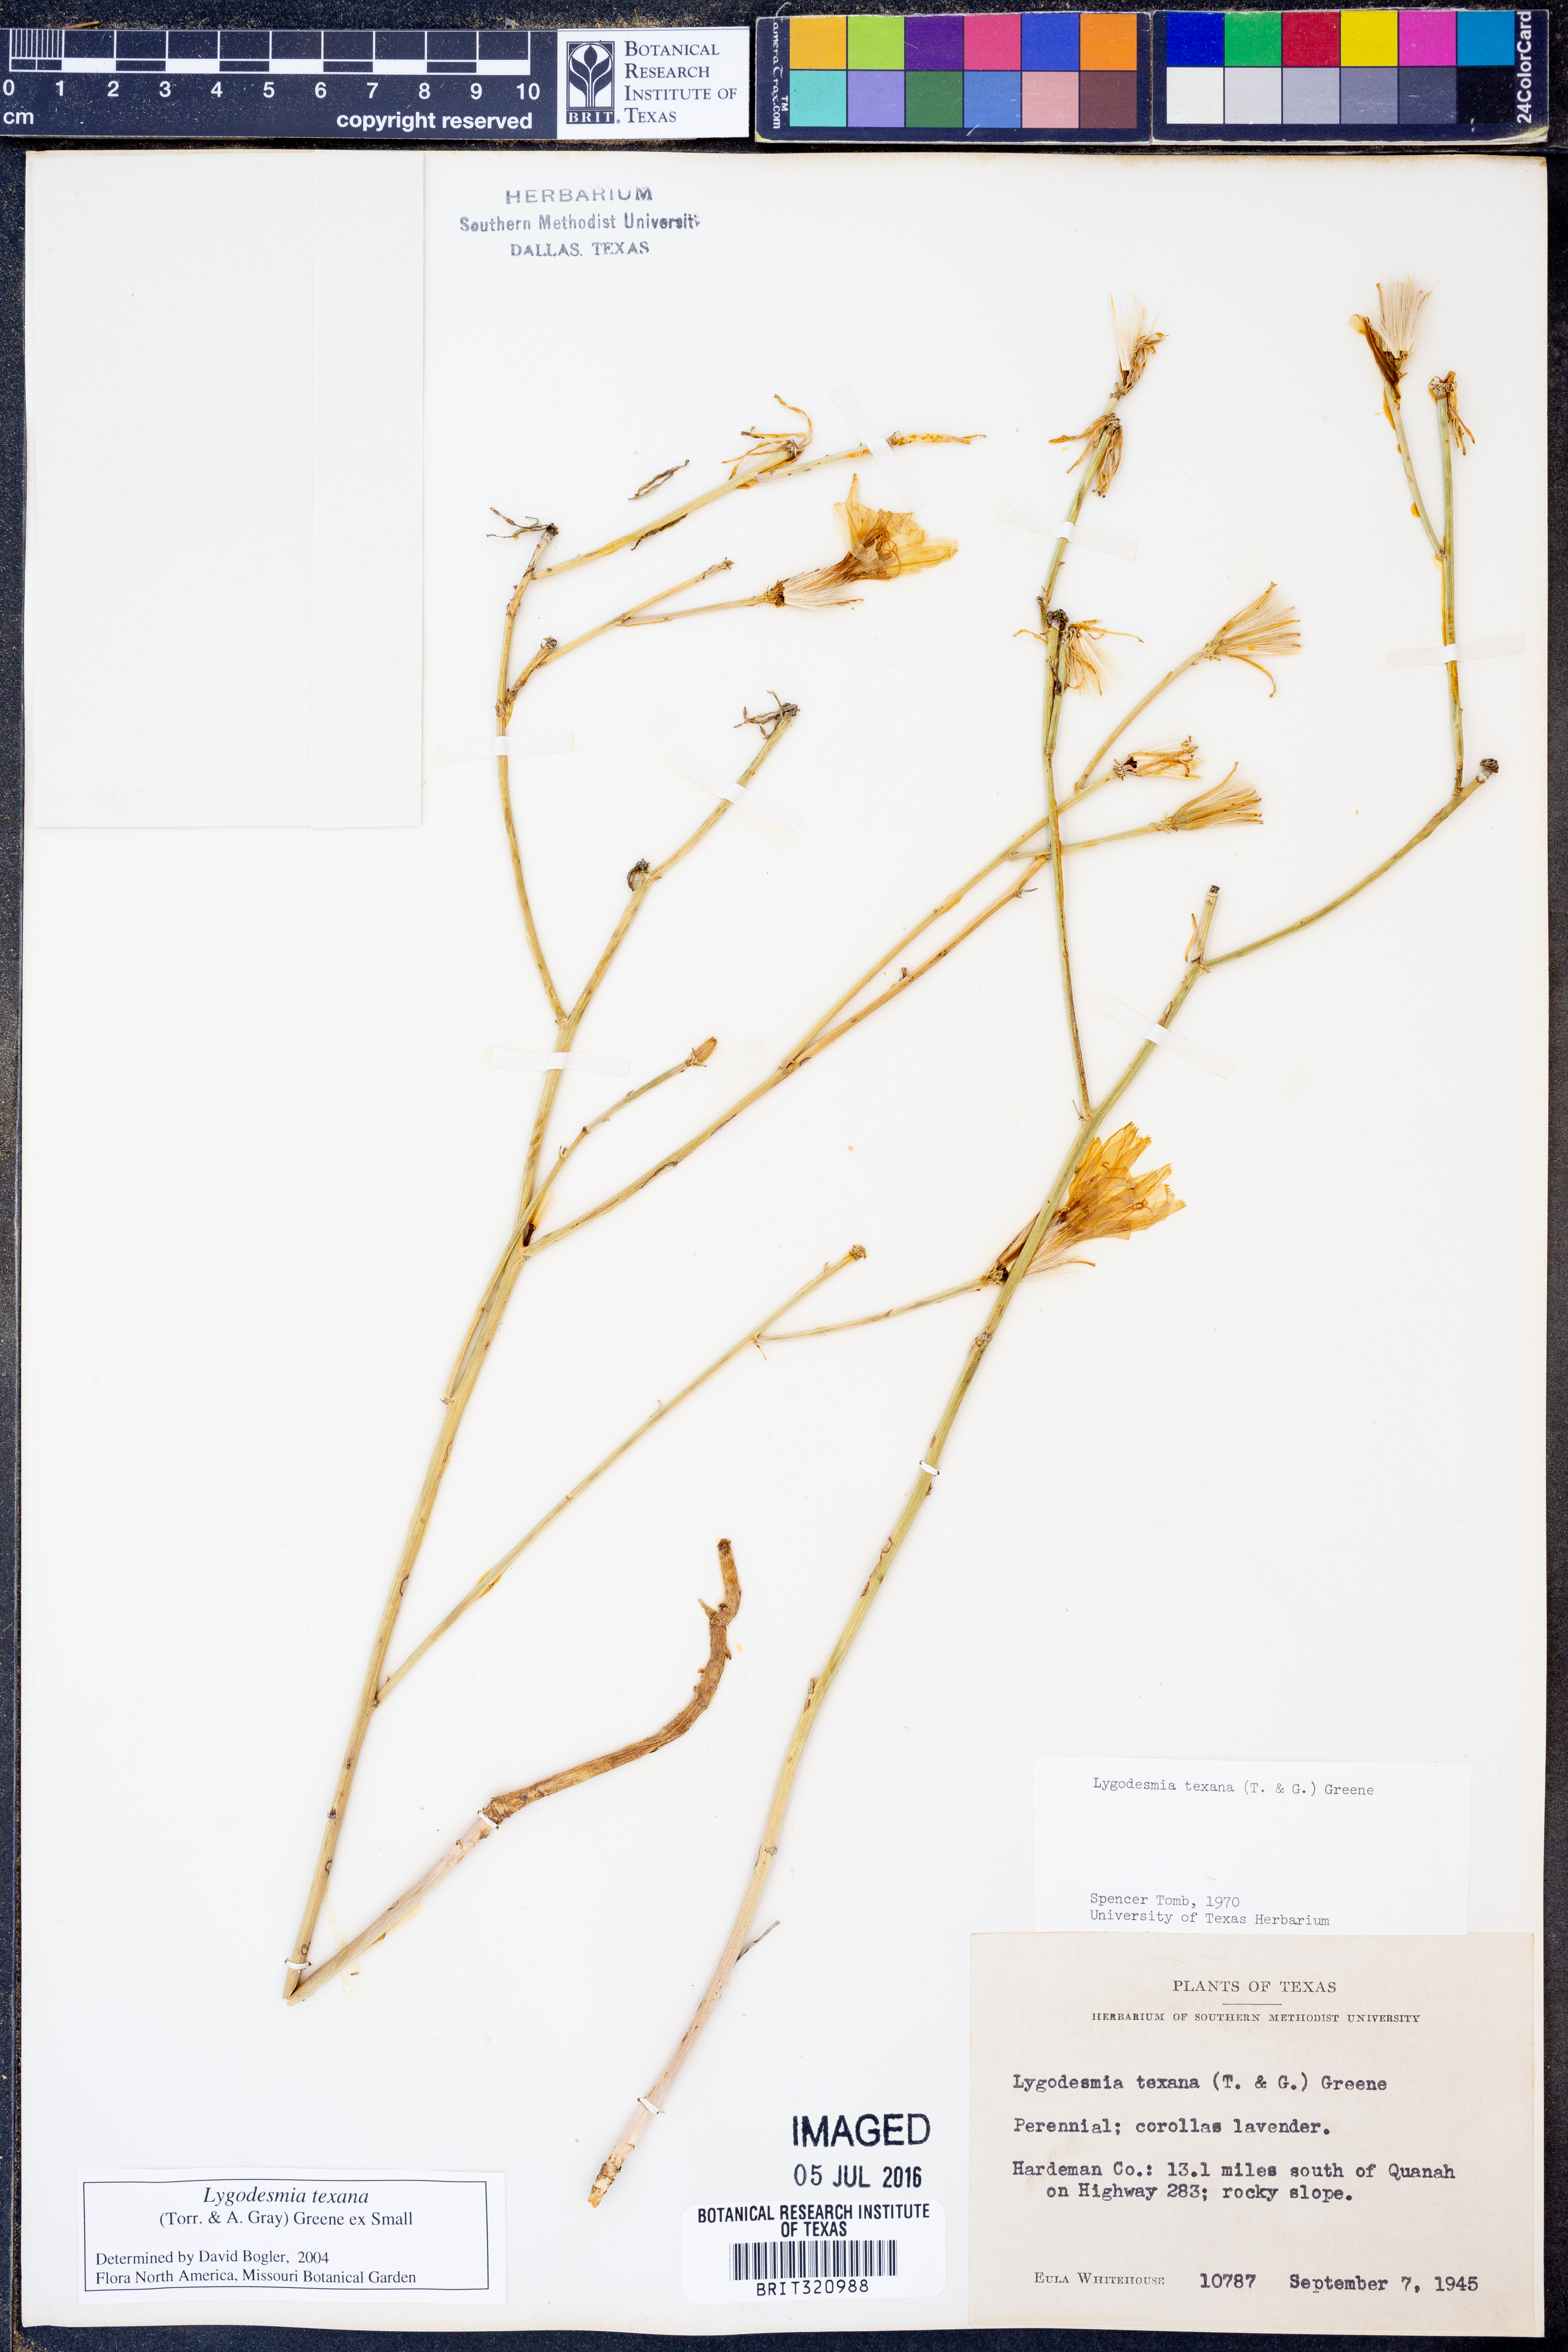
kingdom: Plantae
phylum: Tracheophyta
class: Magnoliopsida
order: Asterales
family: Asteraceae
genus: Lygodesmia
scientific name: Lygodesmia texana
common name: Texas skeleton-plant
